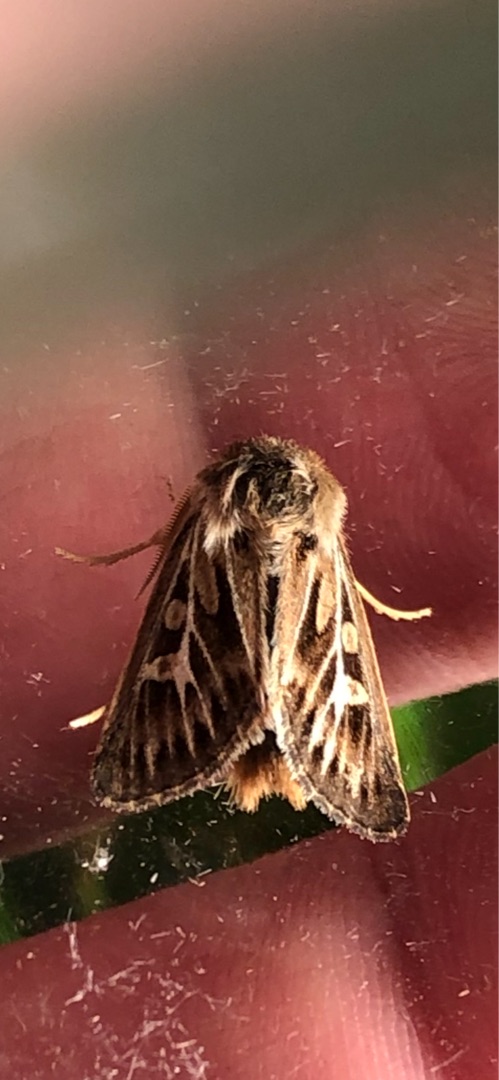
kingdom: Animalia
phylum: Arthropoda
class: Insecta
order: Lepidoptera
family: Noctuidae
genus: Cerapteryx
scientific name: Cerapteryx graminis
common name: Mosebunkeugle
